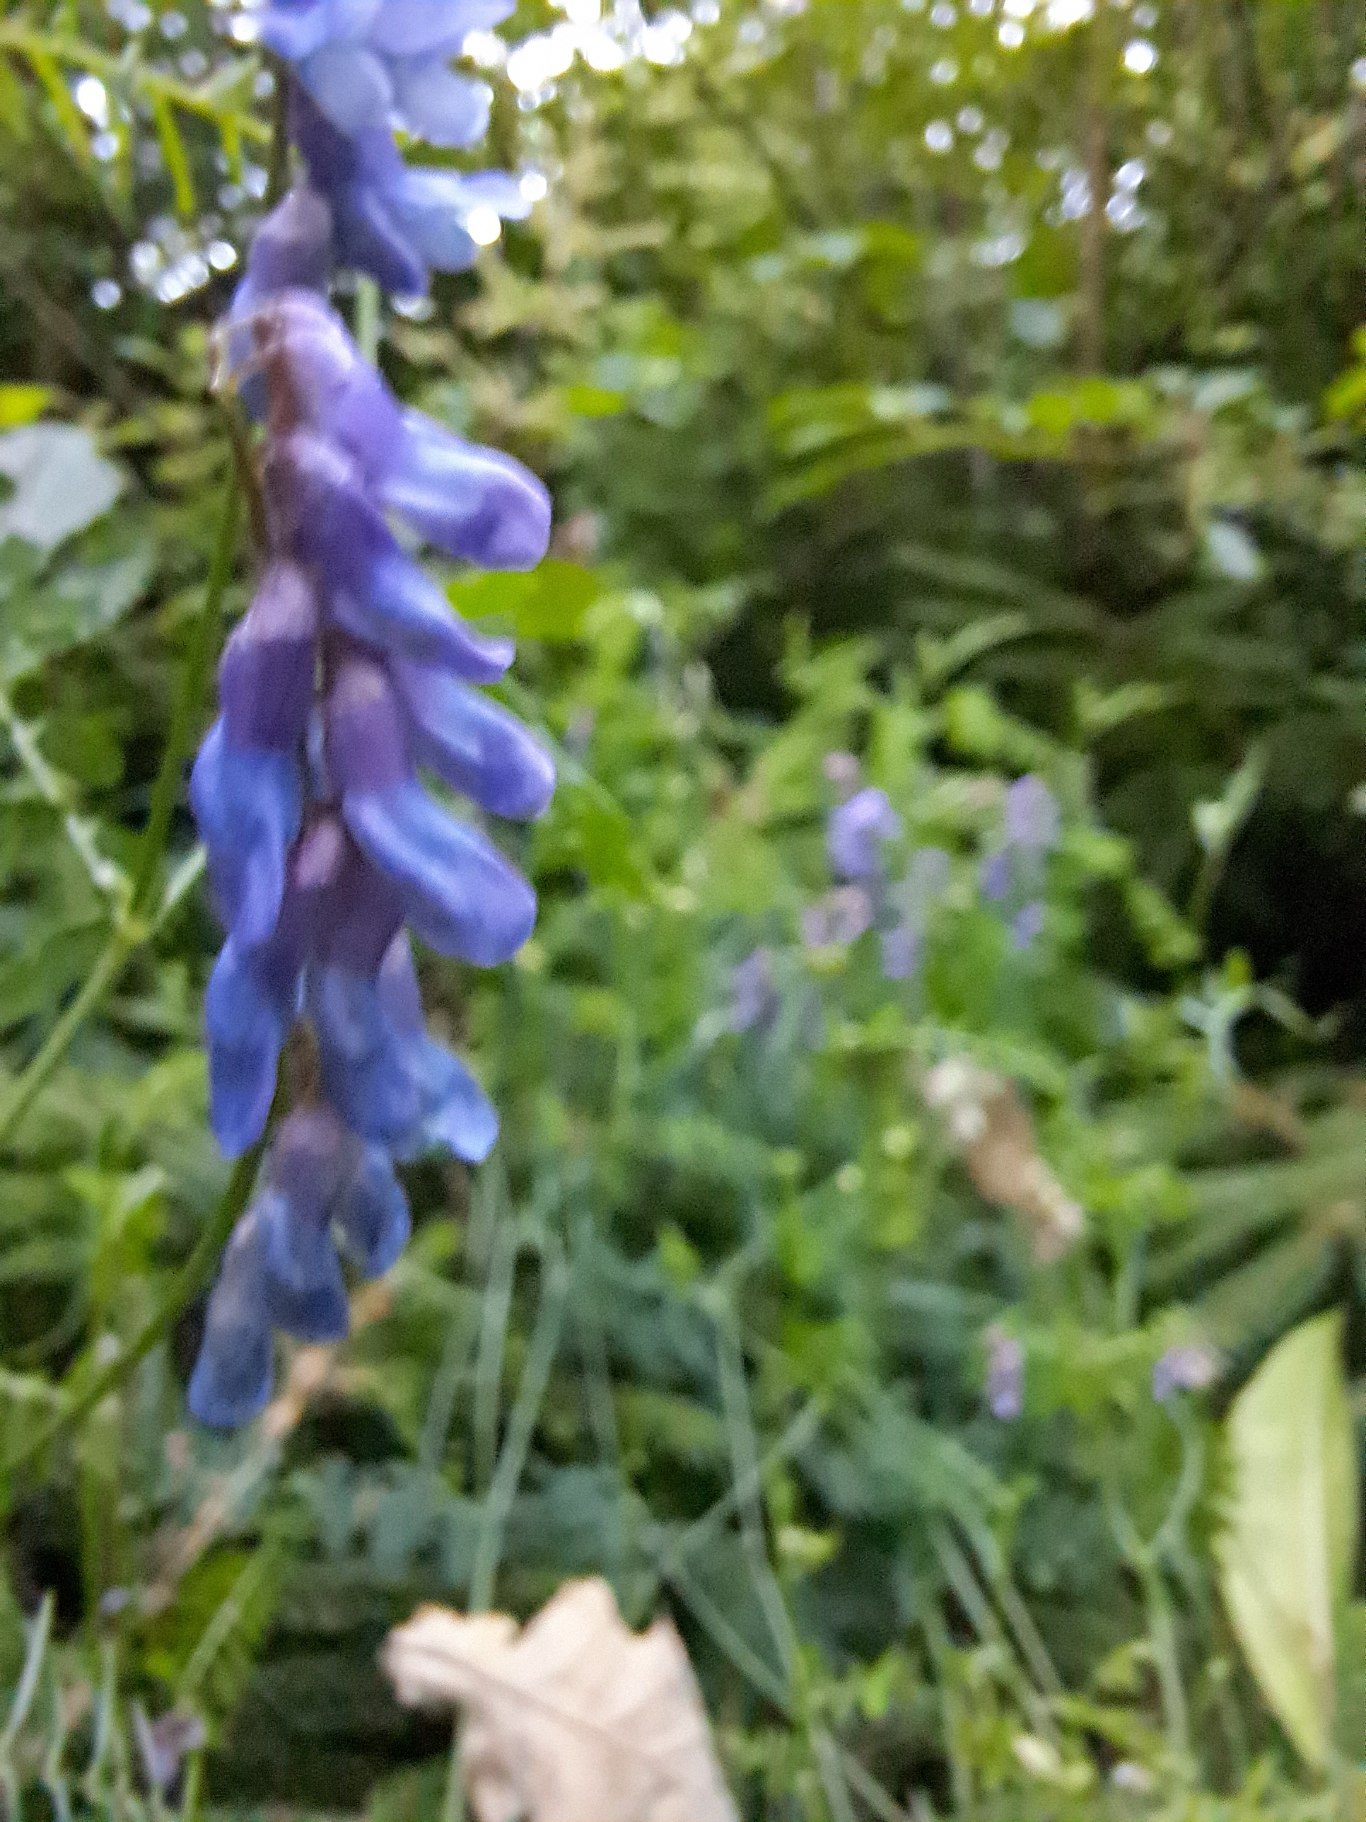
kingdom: Plantae
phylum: Tracheophyta
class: Magnoliopsida
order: Fabales
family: Fabaceae
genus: Vicia
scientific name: Vicia cracca
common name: Muse-vikke
